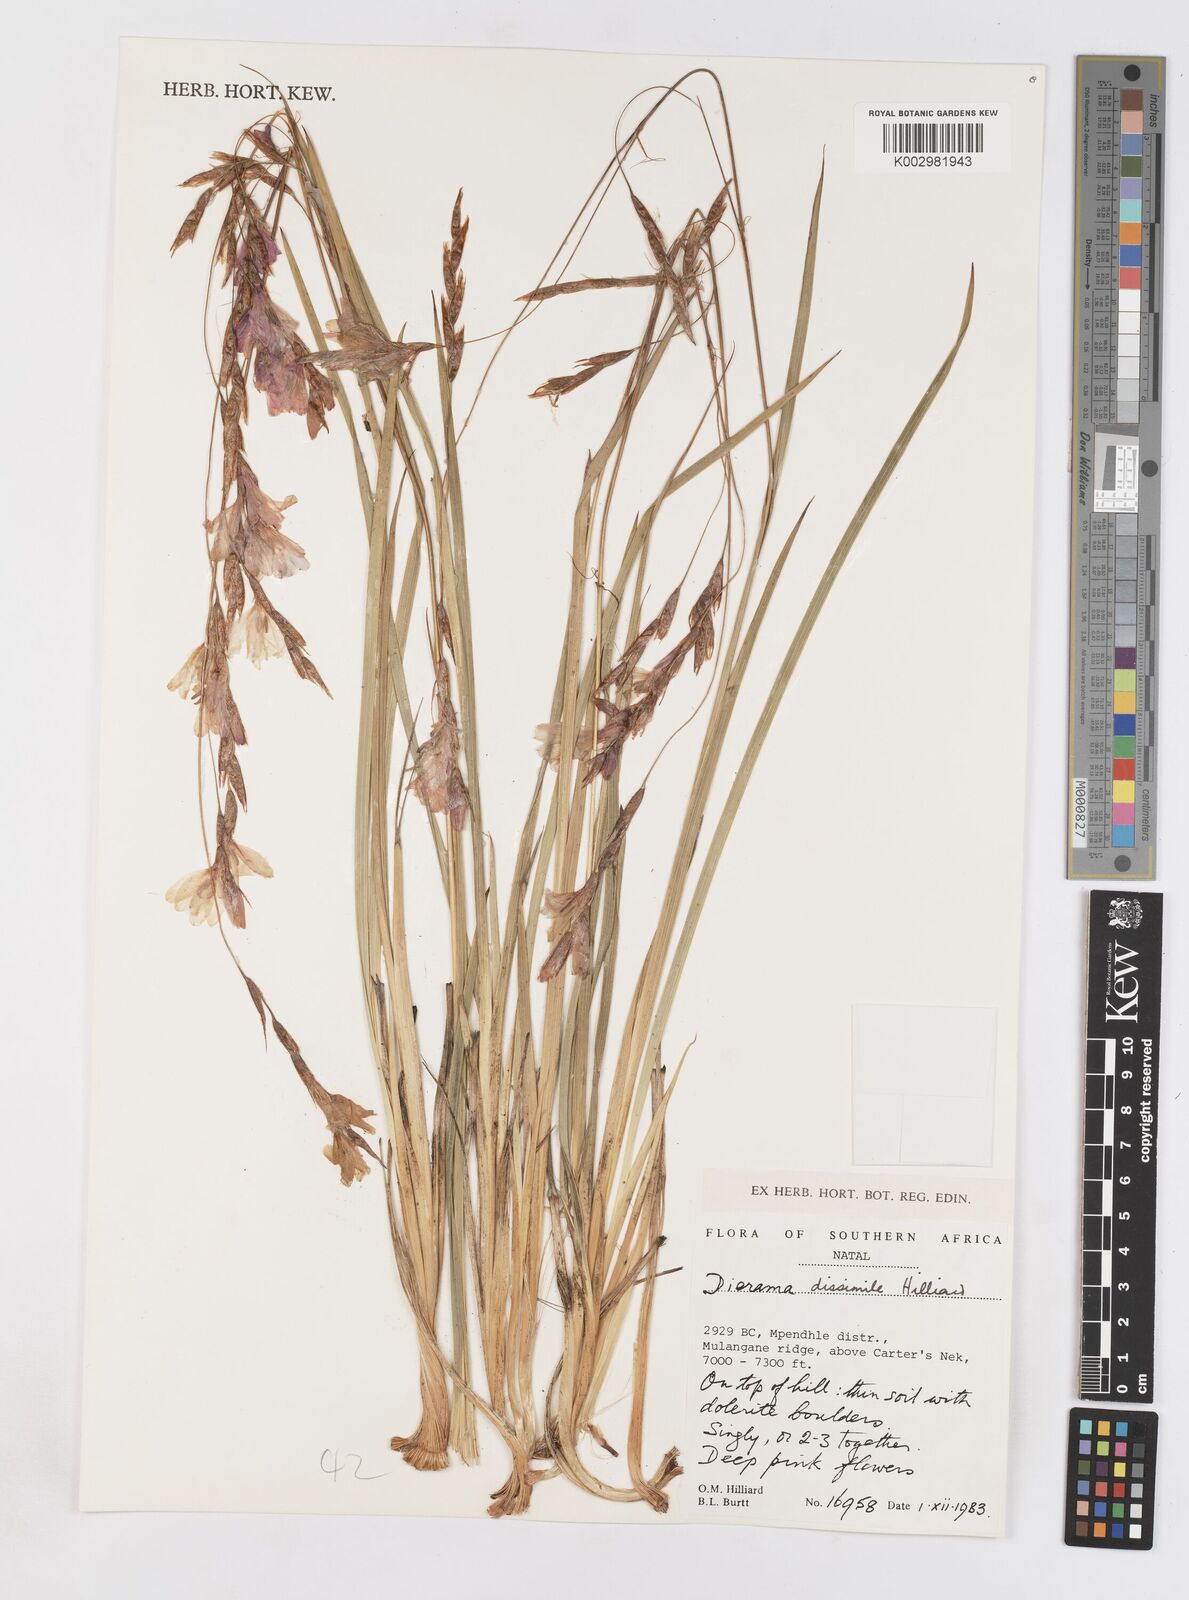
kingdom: Plantae
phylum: Tracheophyta
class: Liliopsida
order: Asparagales
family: Iridaceae
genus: Dierama
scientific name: Dierama dissimile
